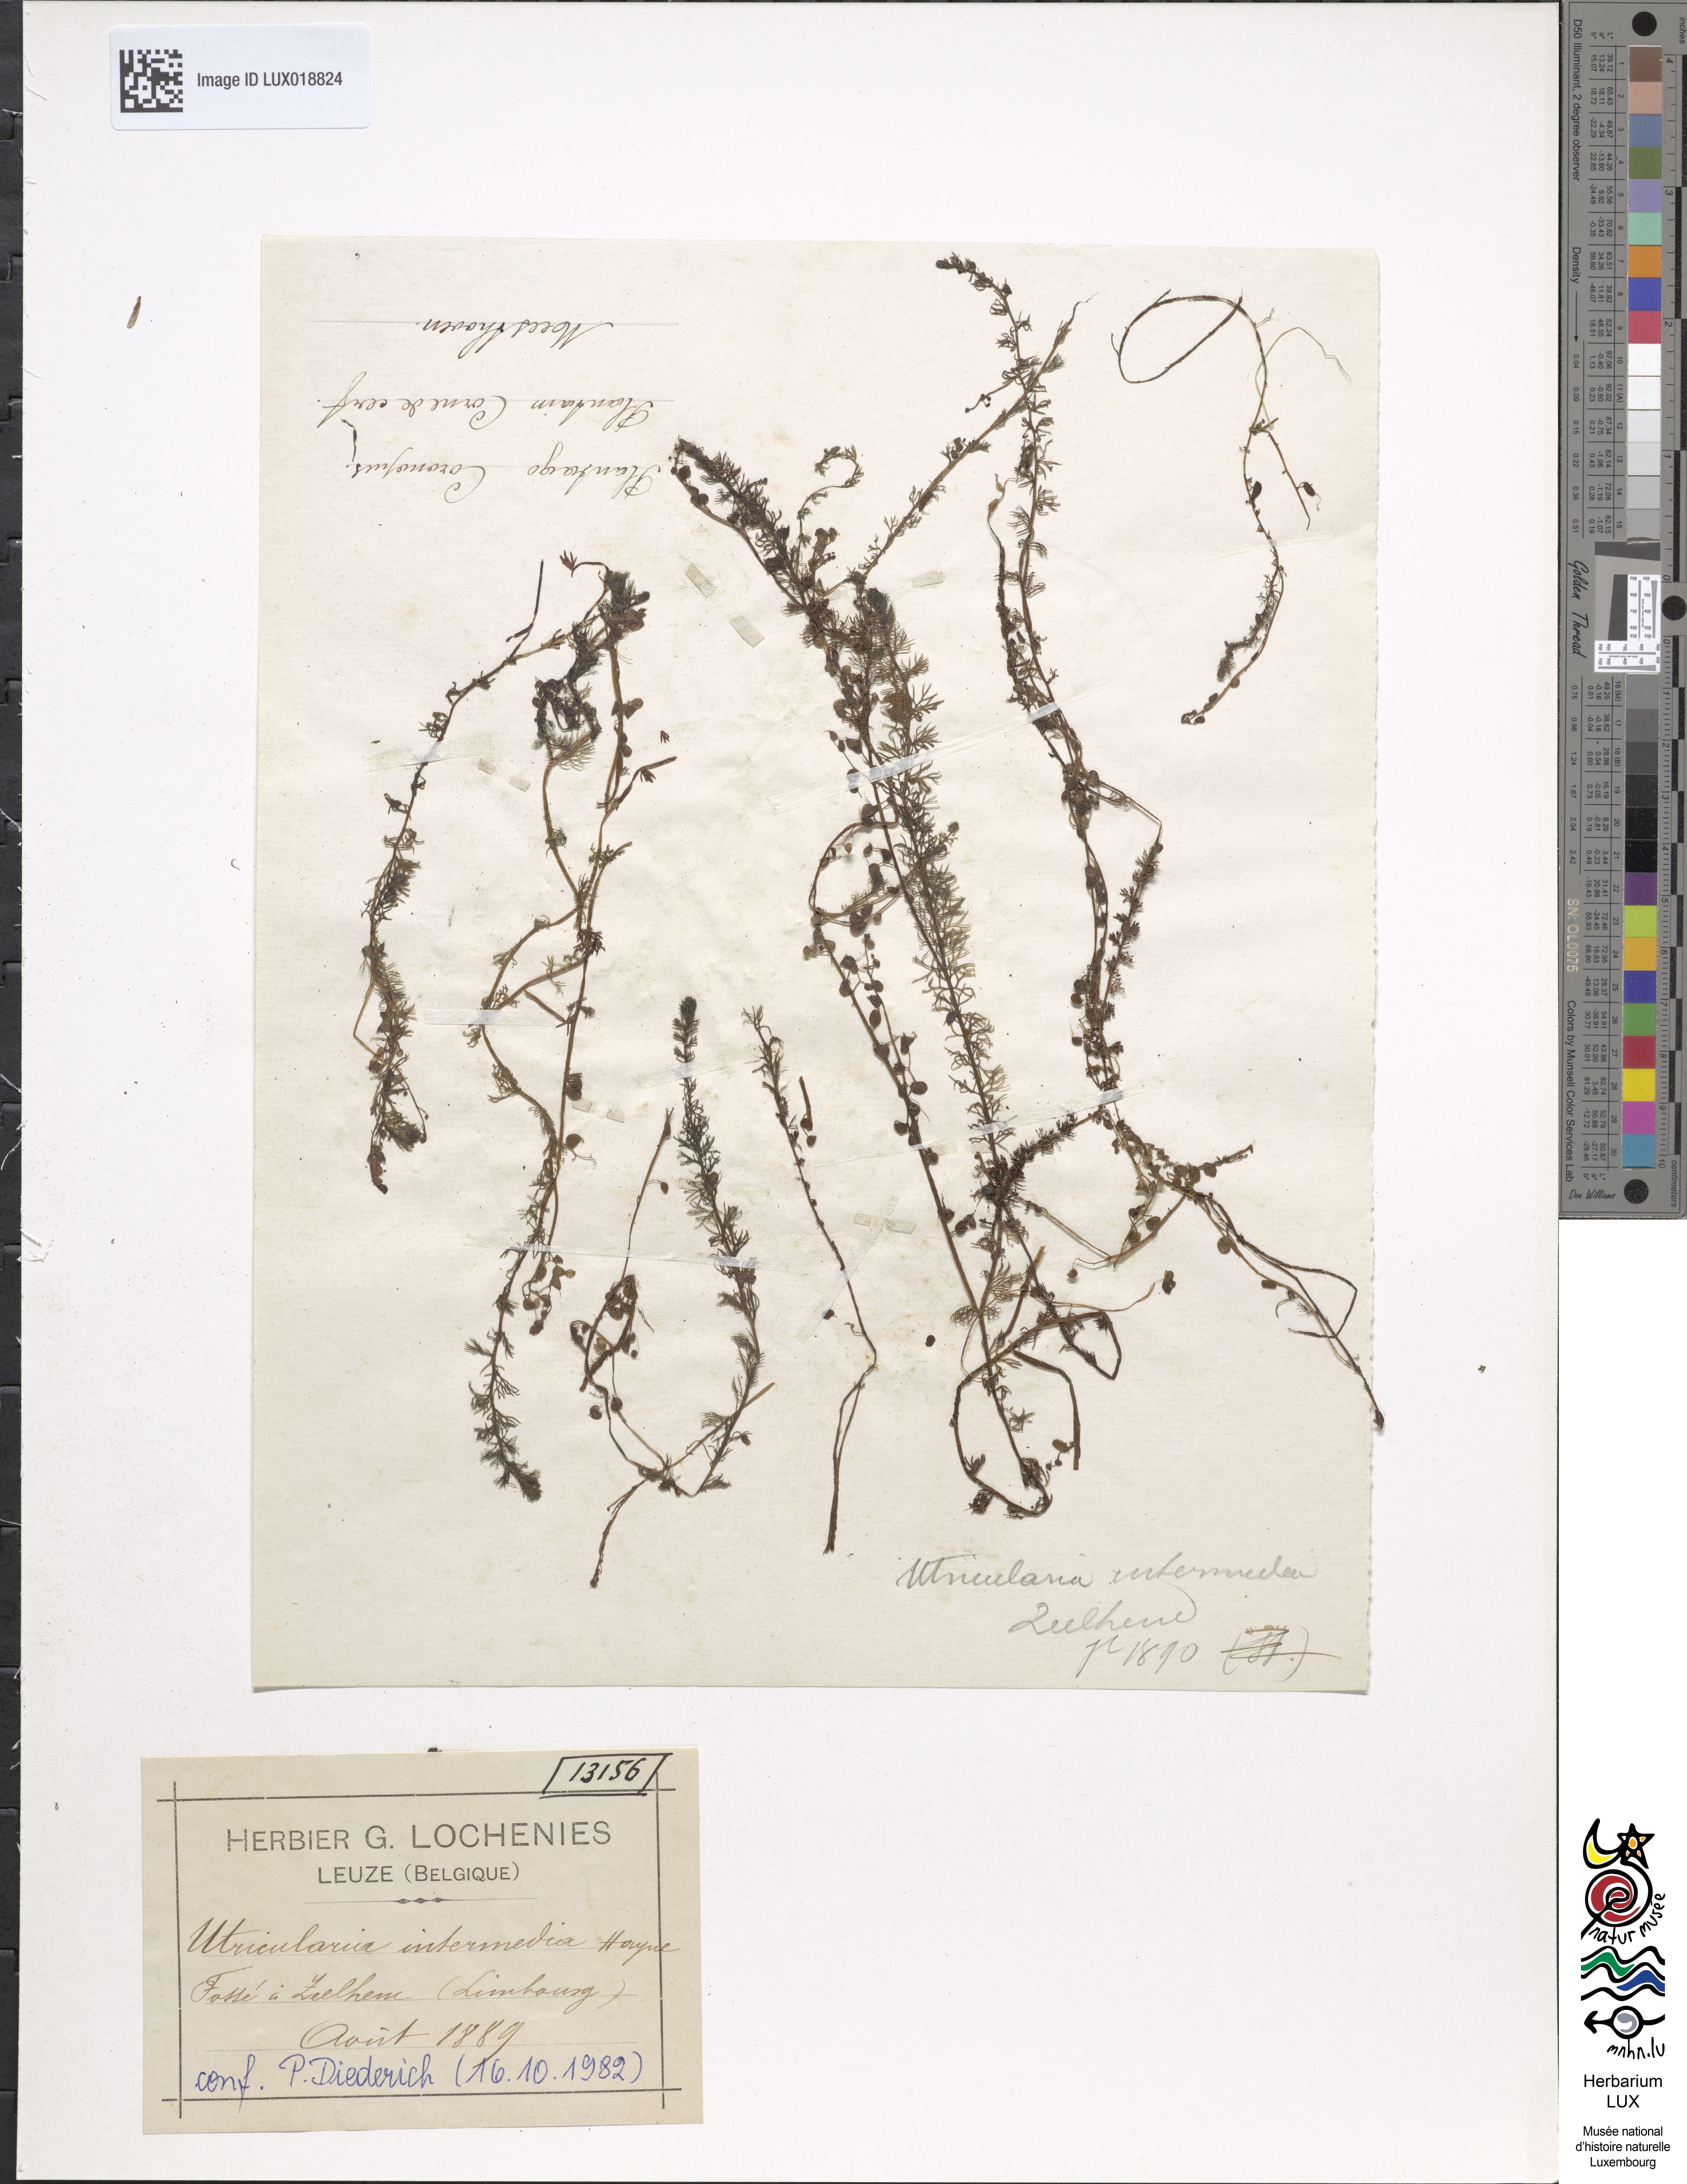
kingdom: Plantae
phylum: Tracheophyta
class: Magnoliopsida
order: Lamiales
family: Lentibulariaceae
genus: Utricularia
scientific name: Utricularia intermedia
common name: Intermediate bladderwort
